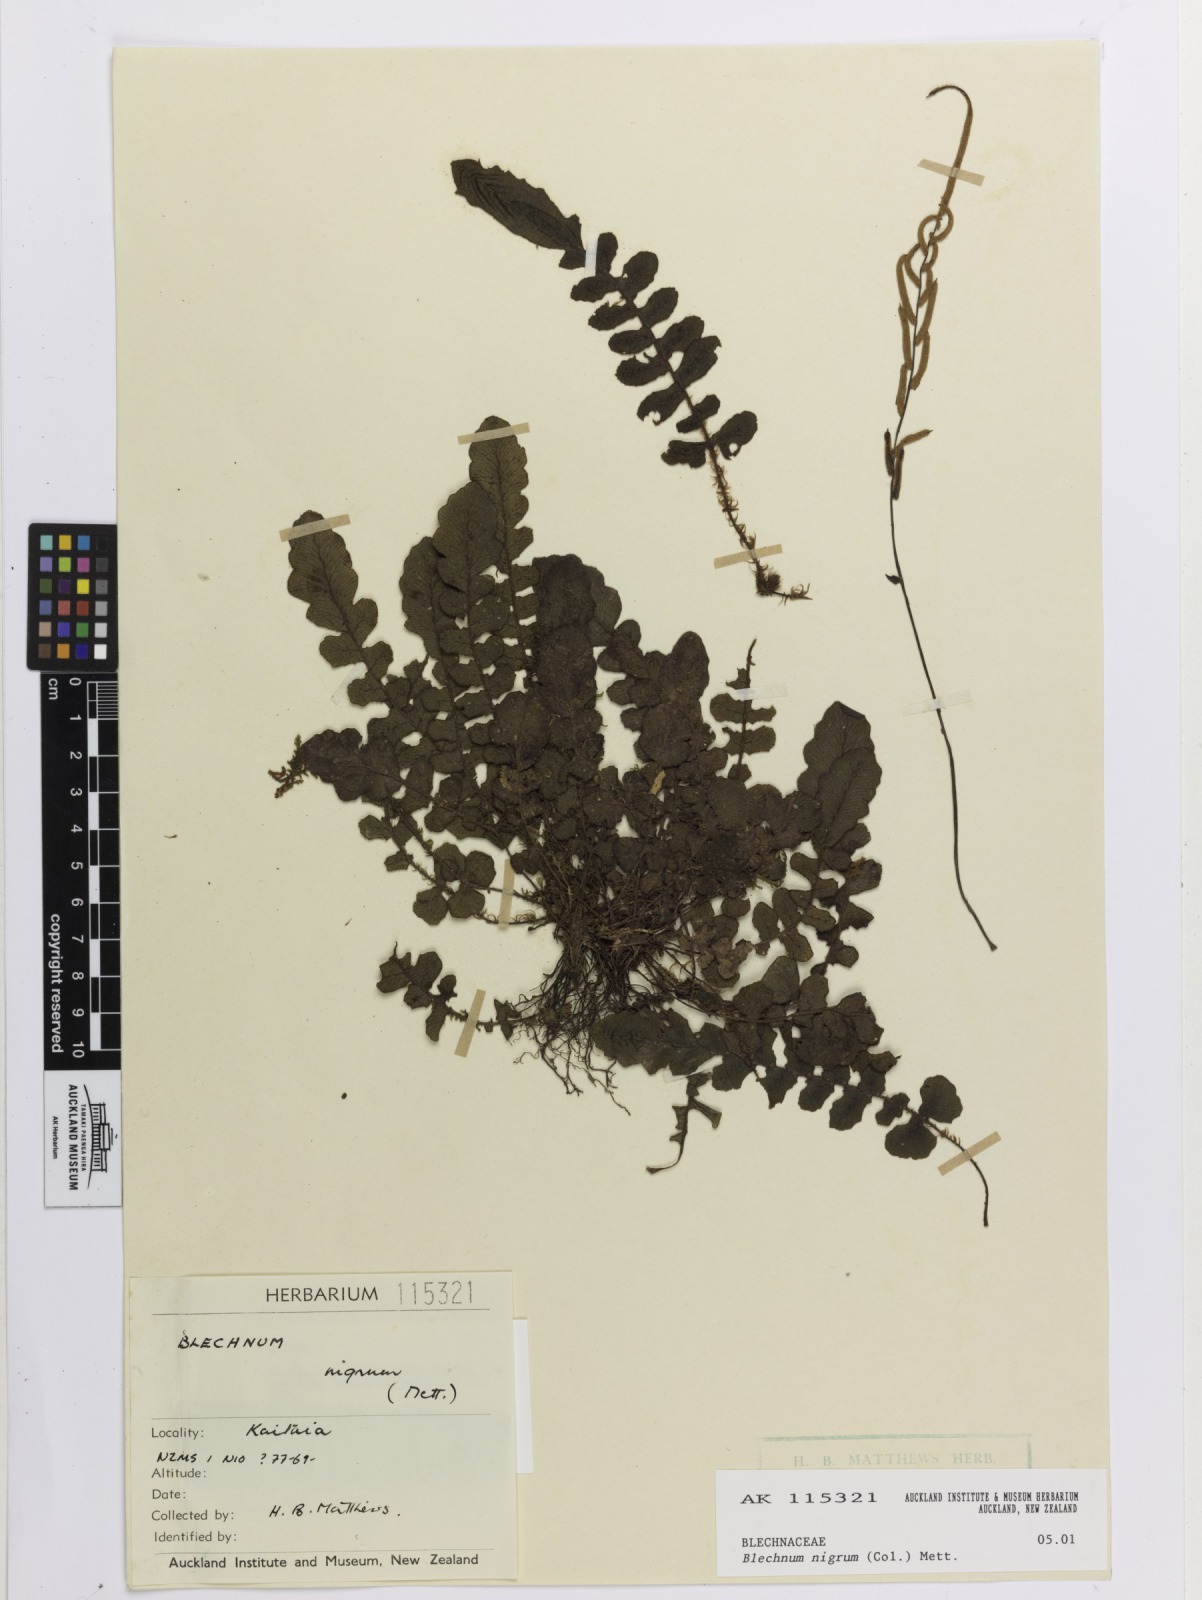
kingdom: Plantae
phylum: Tracheophyta
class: Polypodiopsida
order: Polypodiales
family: Blechnaceae
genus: Cranfillia
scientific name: Cranfillia nigra
